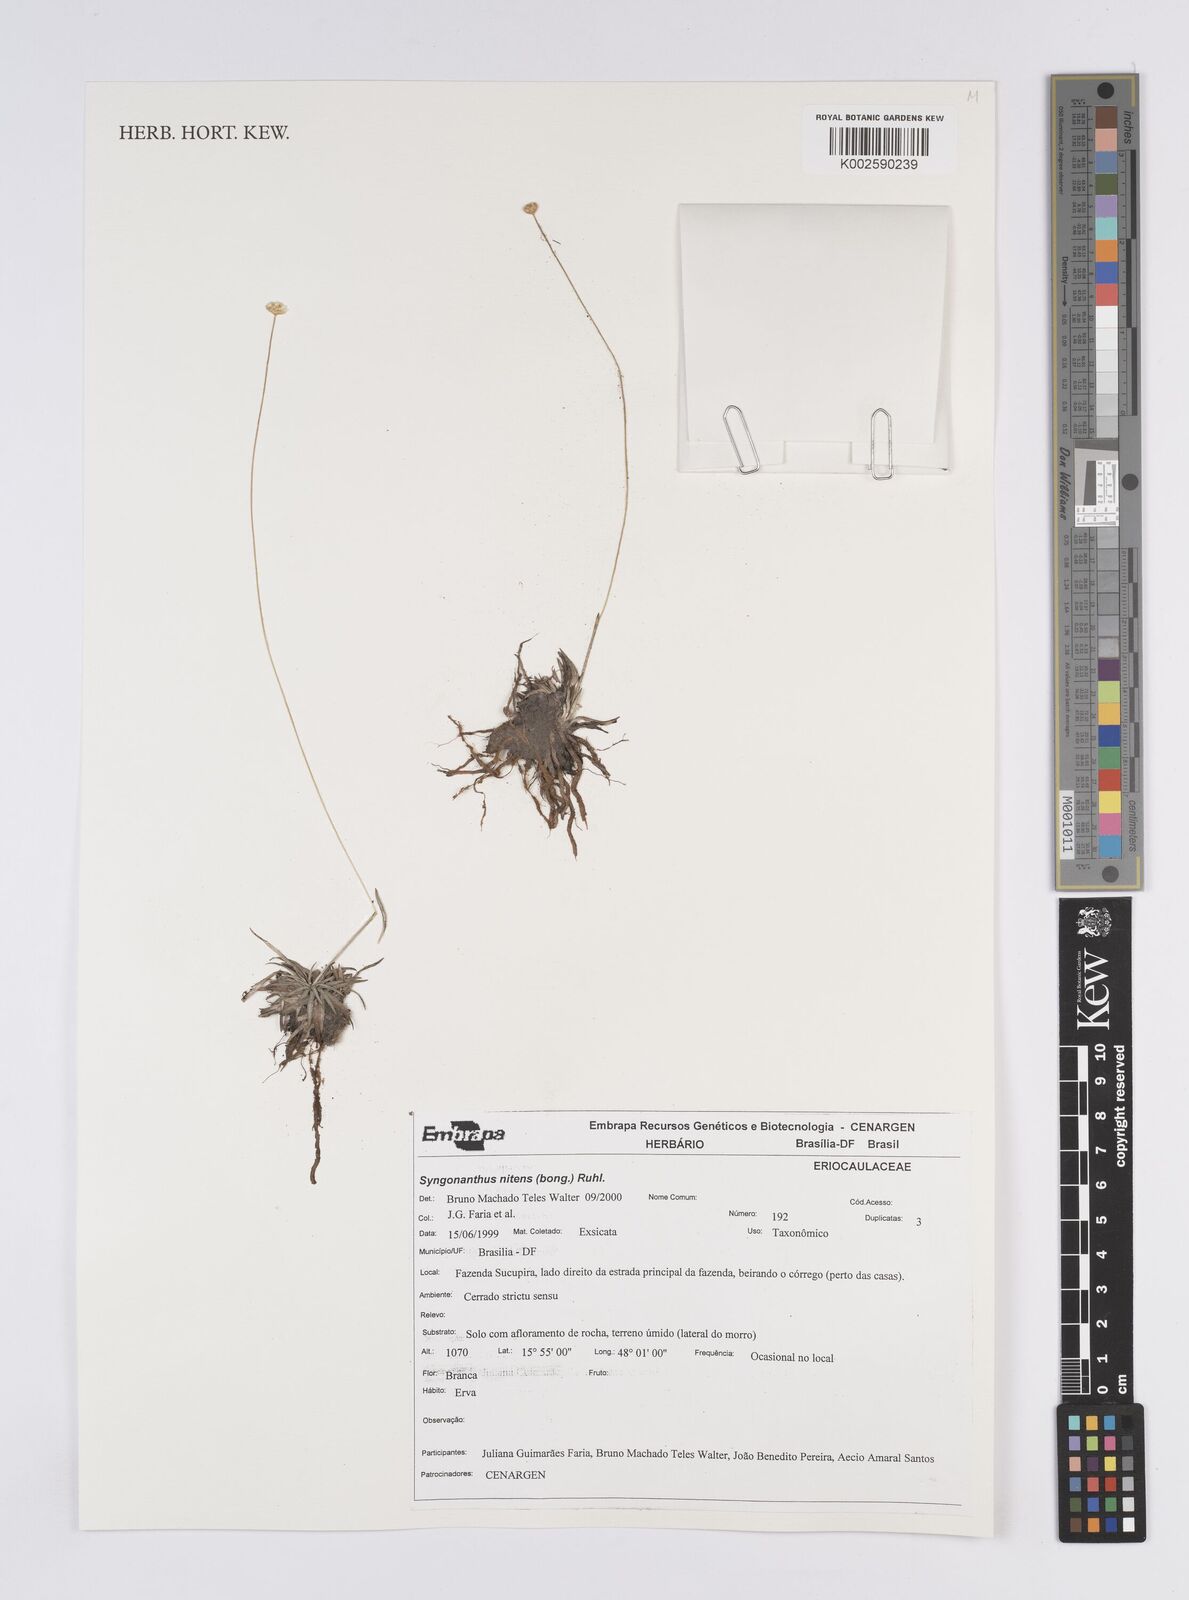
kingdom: Plantae
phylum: Tracheophyta
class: Liliopsida
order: Poales
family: Eriocaulaceae
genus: Syngonanthus
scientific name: Syngonanthus nitens
